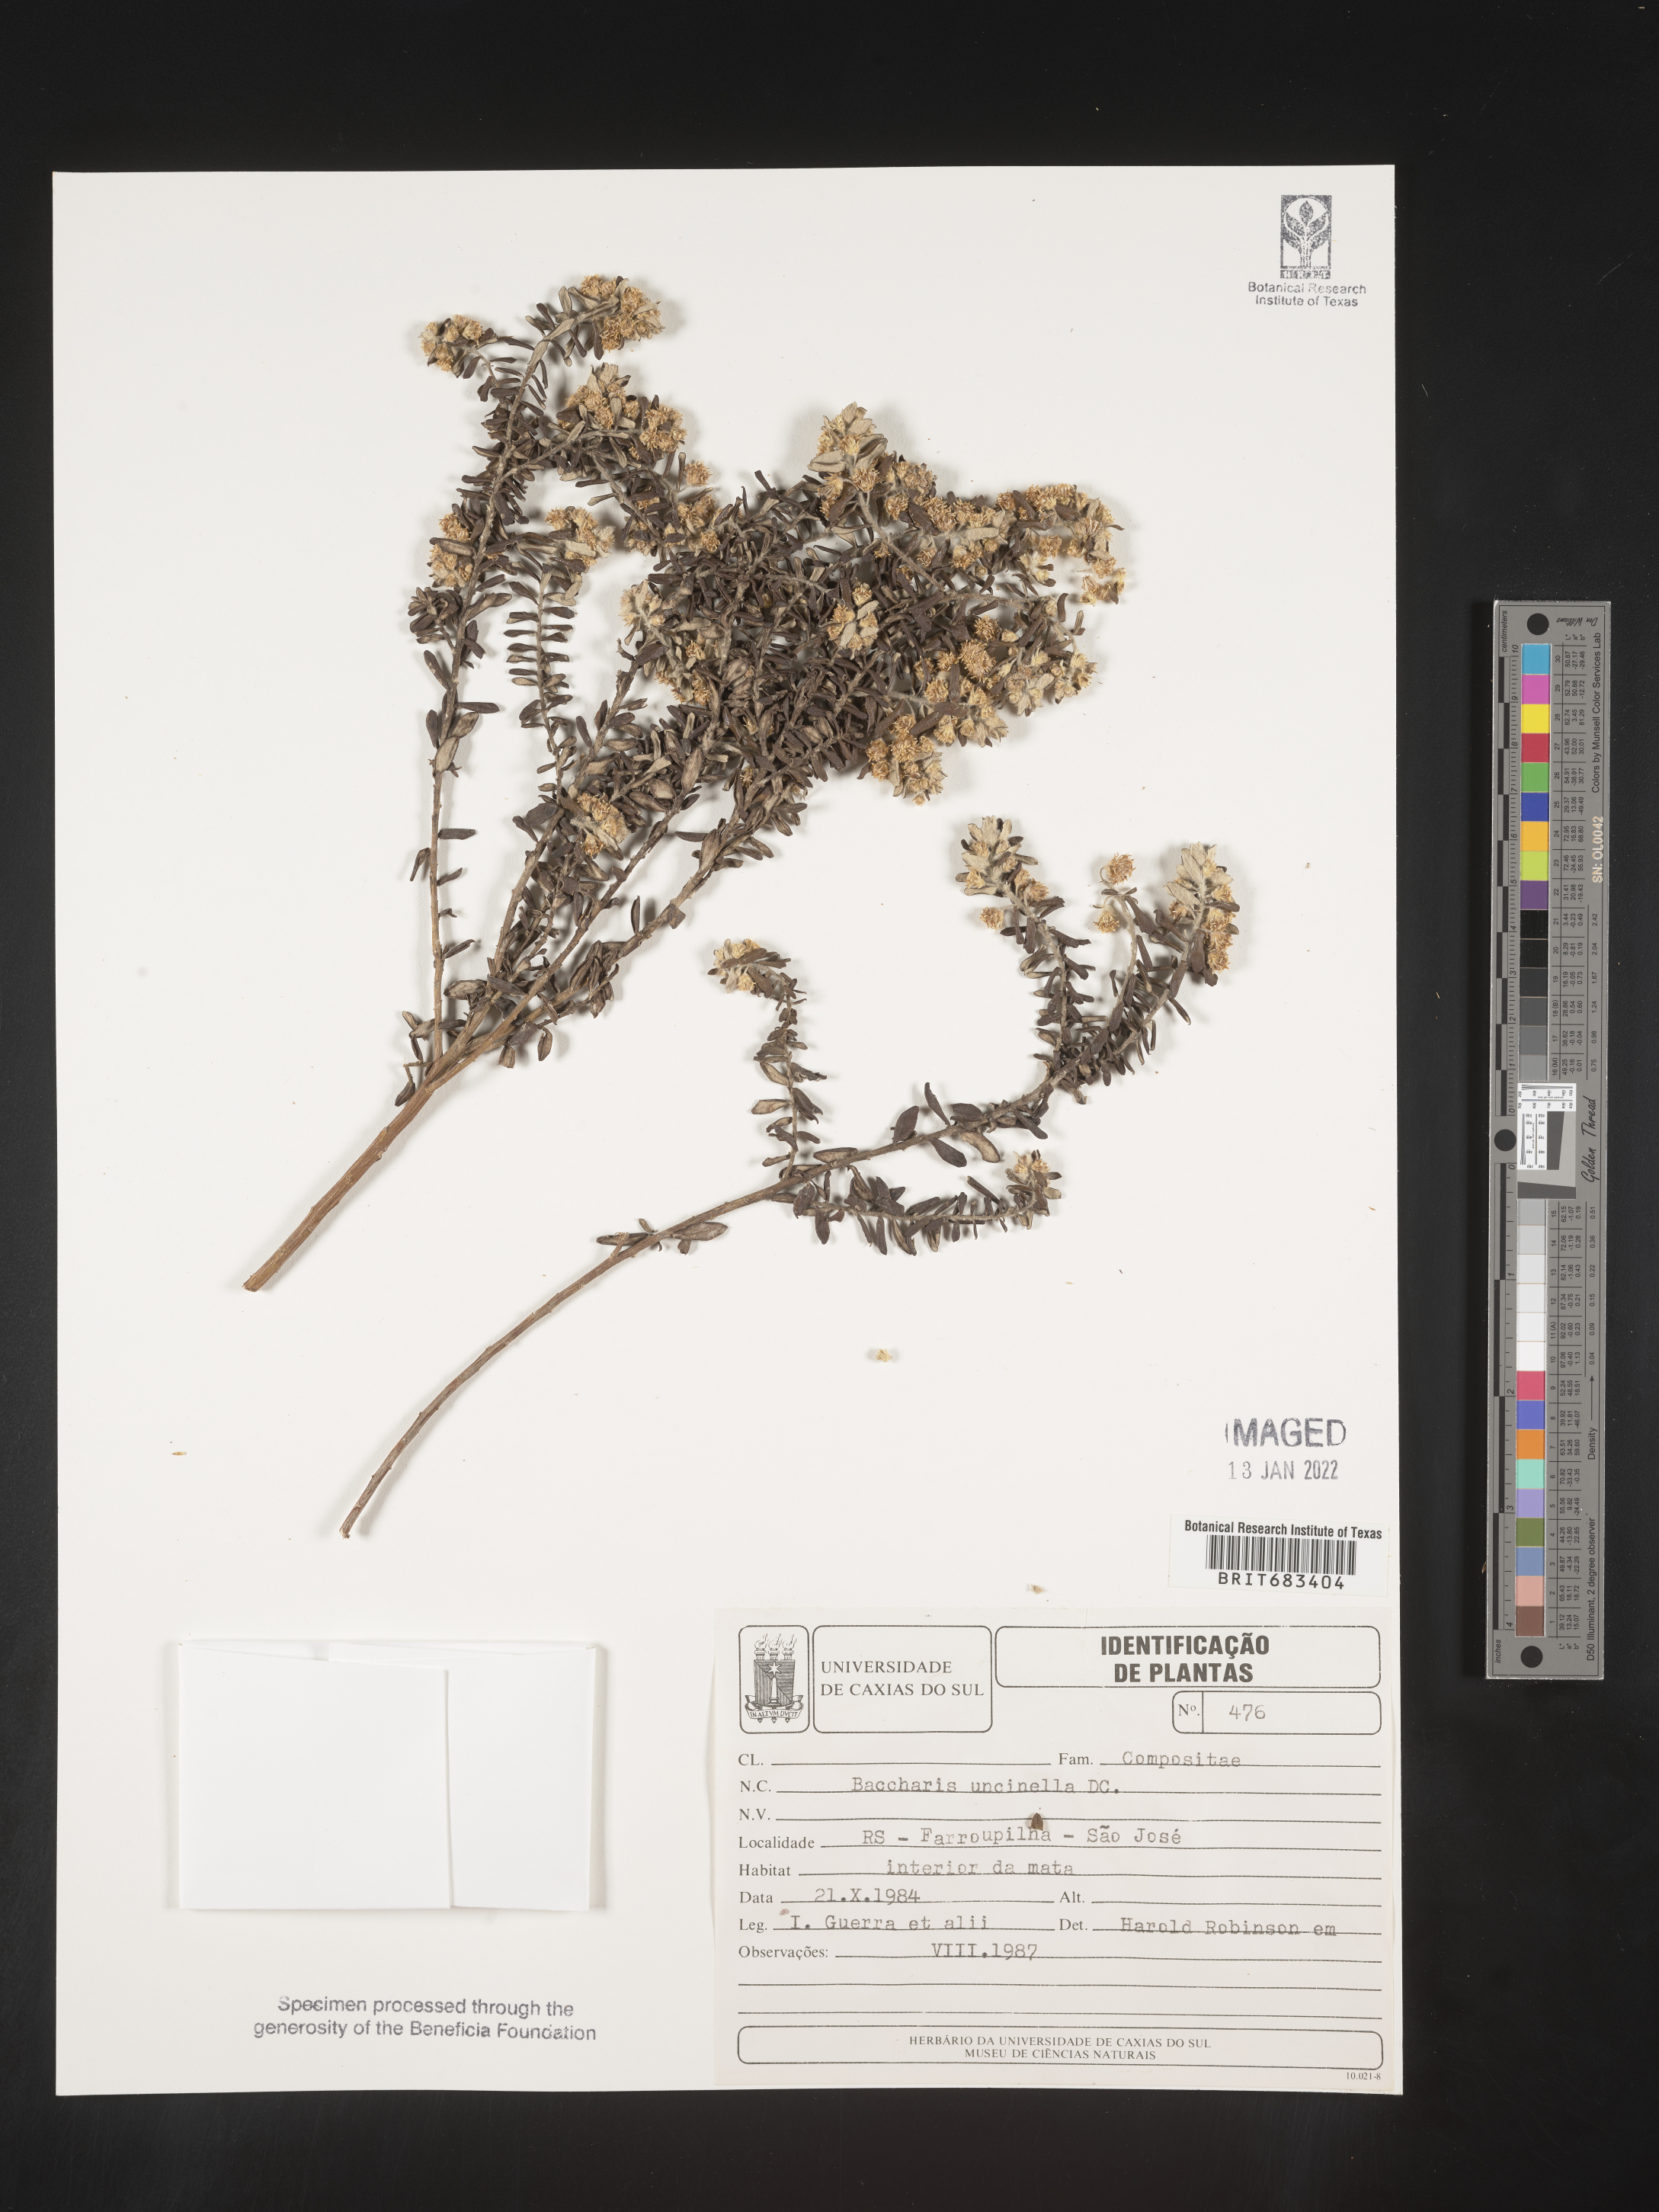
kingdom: Plantae
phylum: Tracheophyta
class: Magnoliopsida
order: Asterales
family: Asteraceae
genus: Baccharis
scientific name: Baccharis
